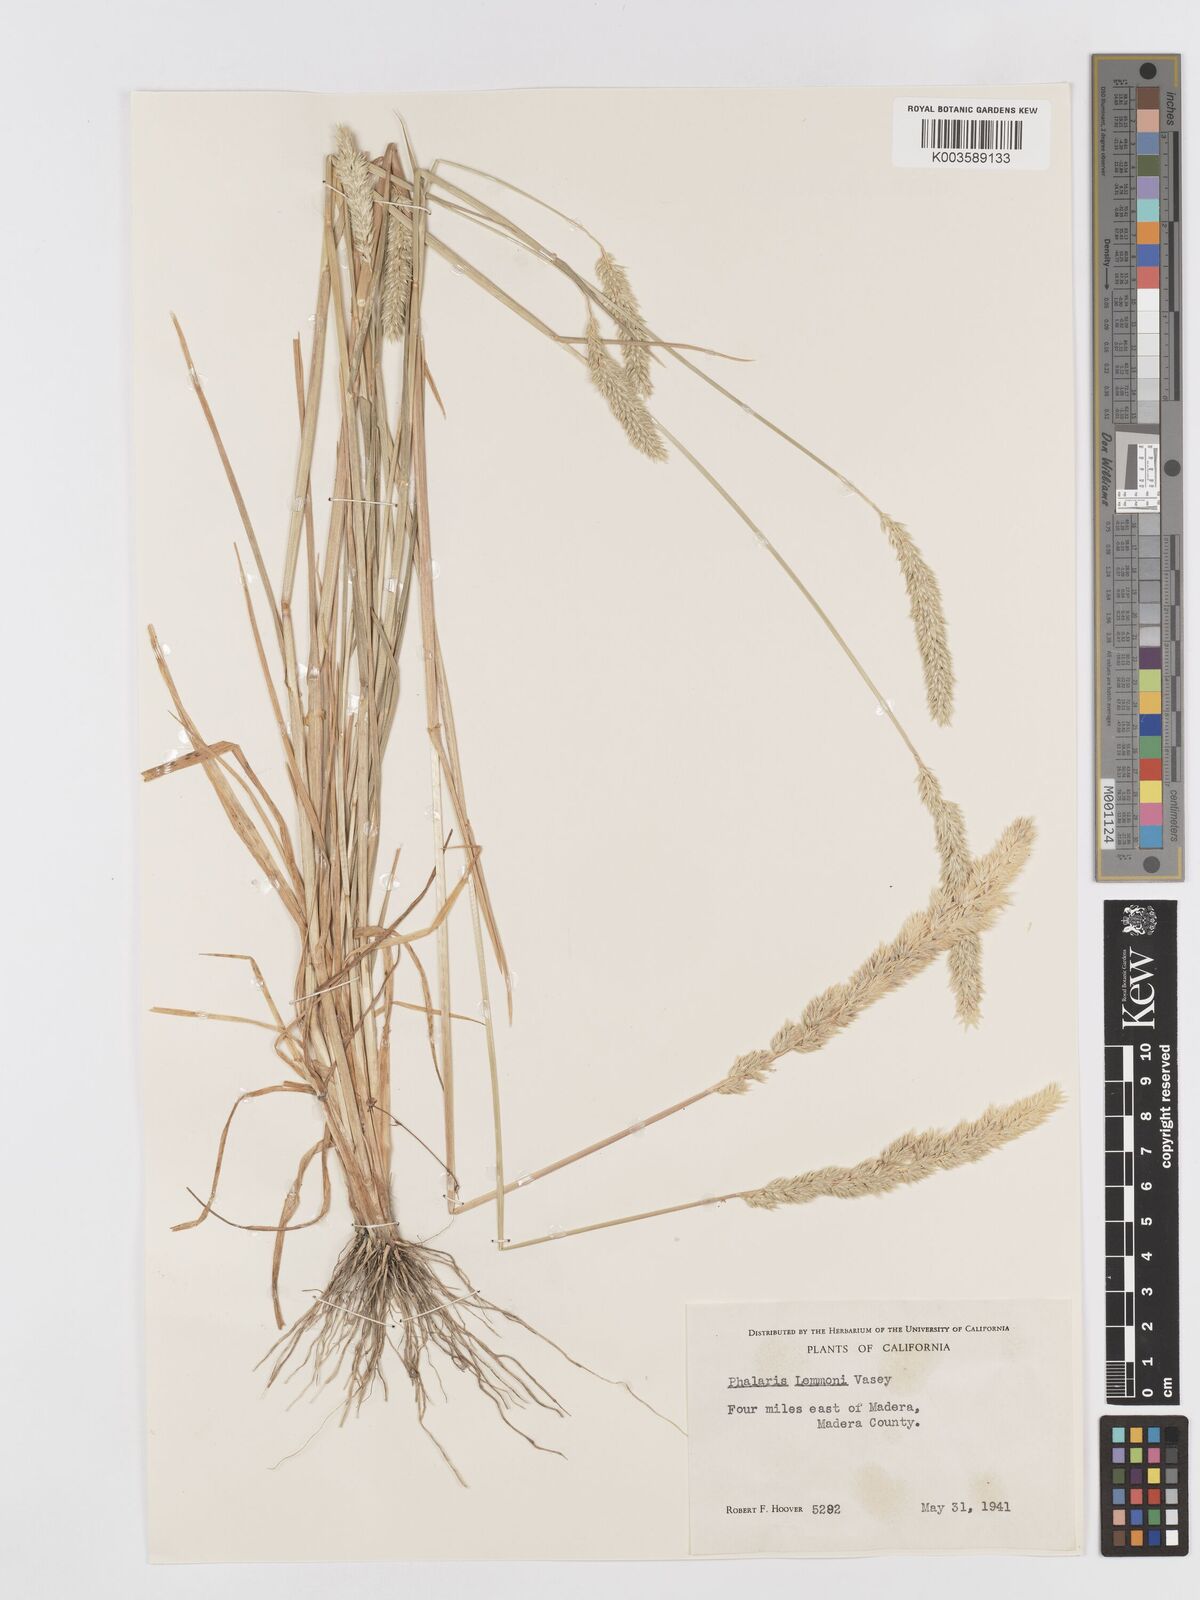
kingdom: Plantae
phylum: Tracheophyta
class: Liliopsida
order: Poales
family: Poaceae
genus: Phalaris
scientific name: Phalaris lemmonii
